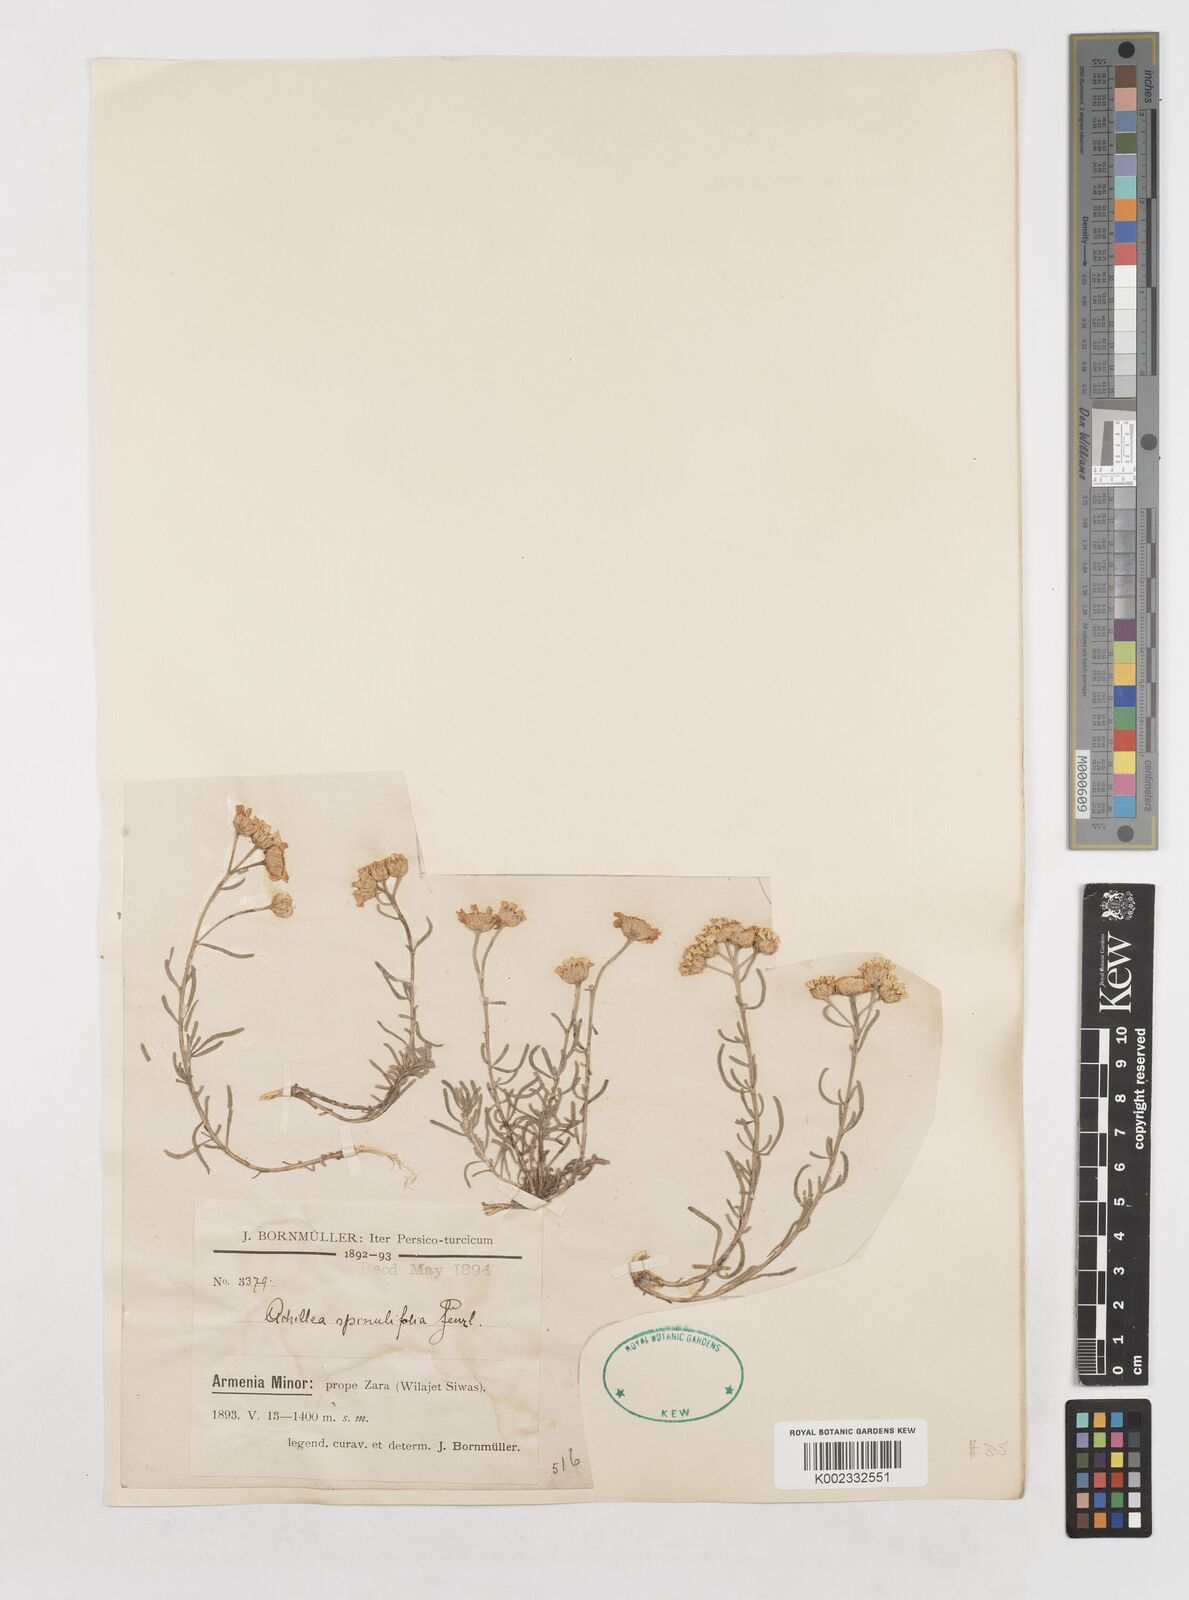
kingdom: Plantae
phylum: Tracheophyta
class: Magnoliopsida
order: Asterales
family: Asteraceae
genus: Achillea
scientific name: Achillea spinulifolia
